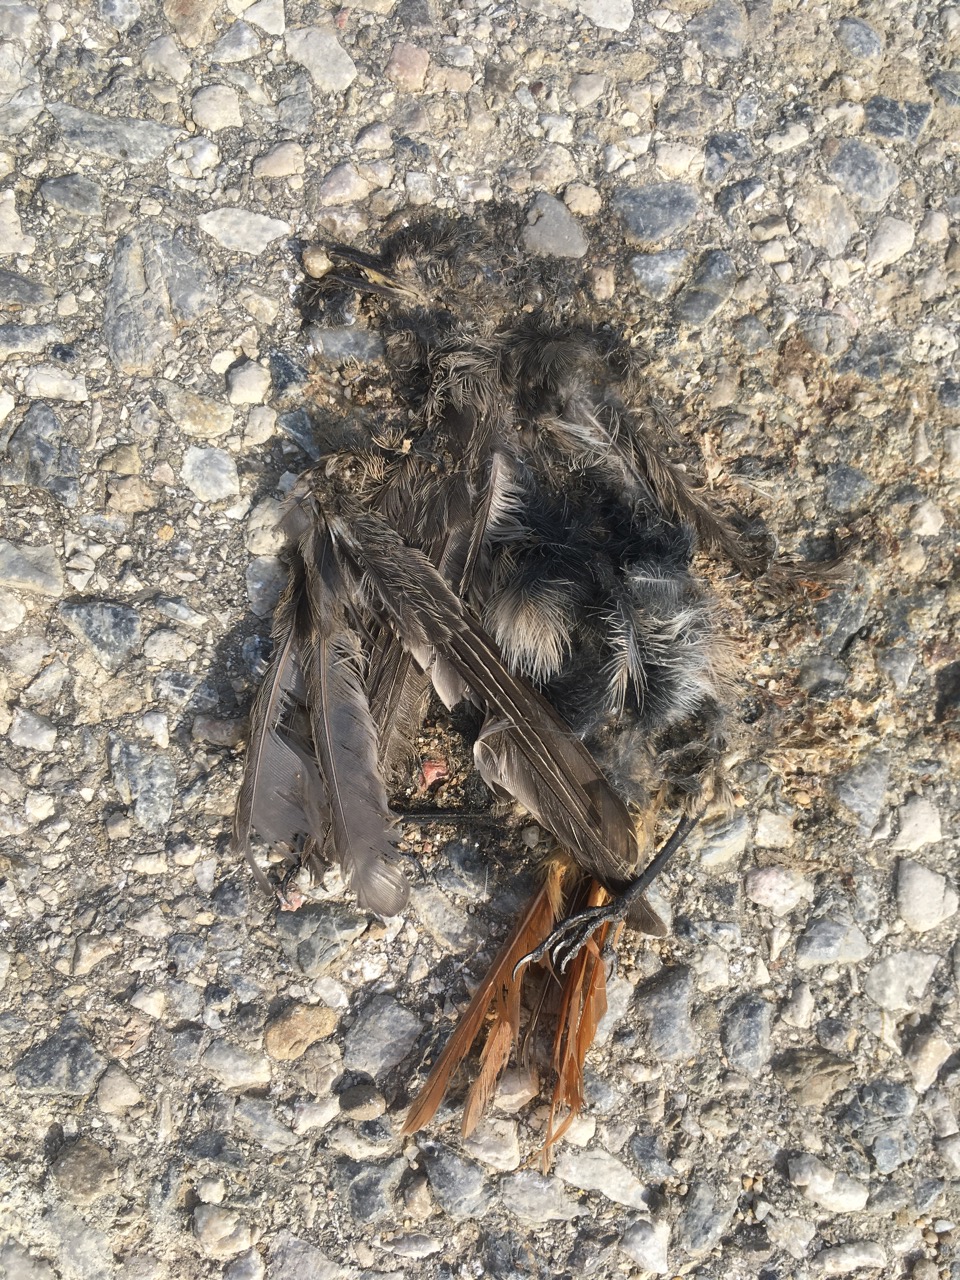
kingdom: Animalia
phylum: Chordata
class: Aves
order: Passeriformes
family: Muscicapidae
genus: Phoenicurus
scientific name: Phoenicurus
